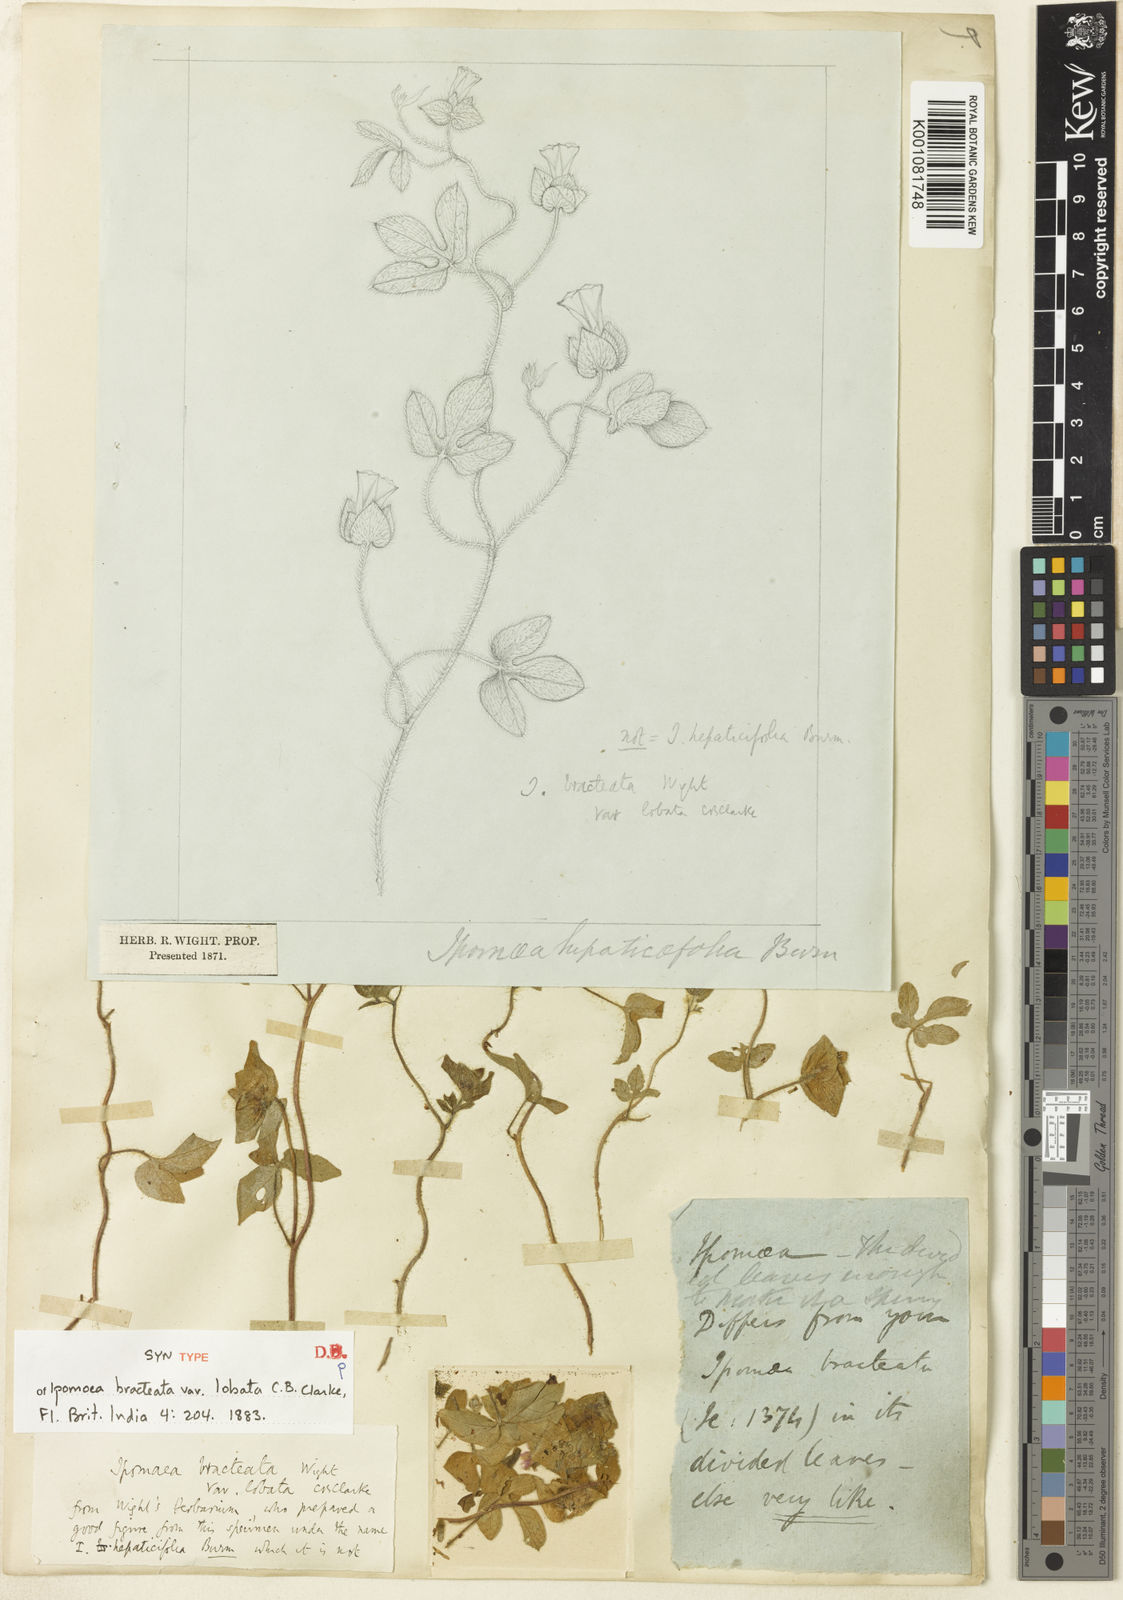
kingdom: Plantae
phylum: Tracheophyta
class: Magnoliopsida
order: Solanales
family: Convolvulaceae
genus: Ipomoea
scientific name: Ipomoea bracteata
